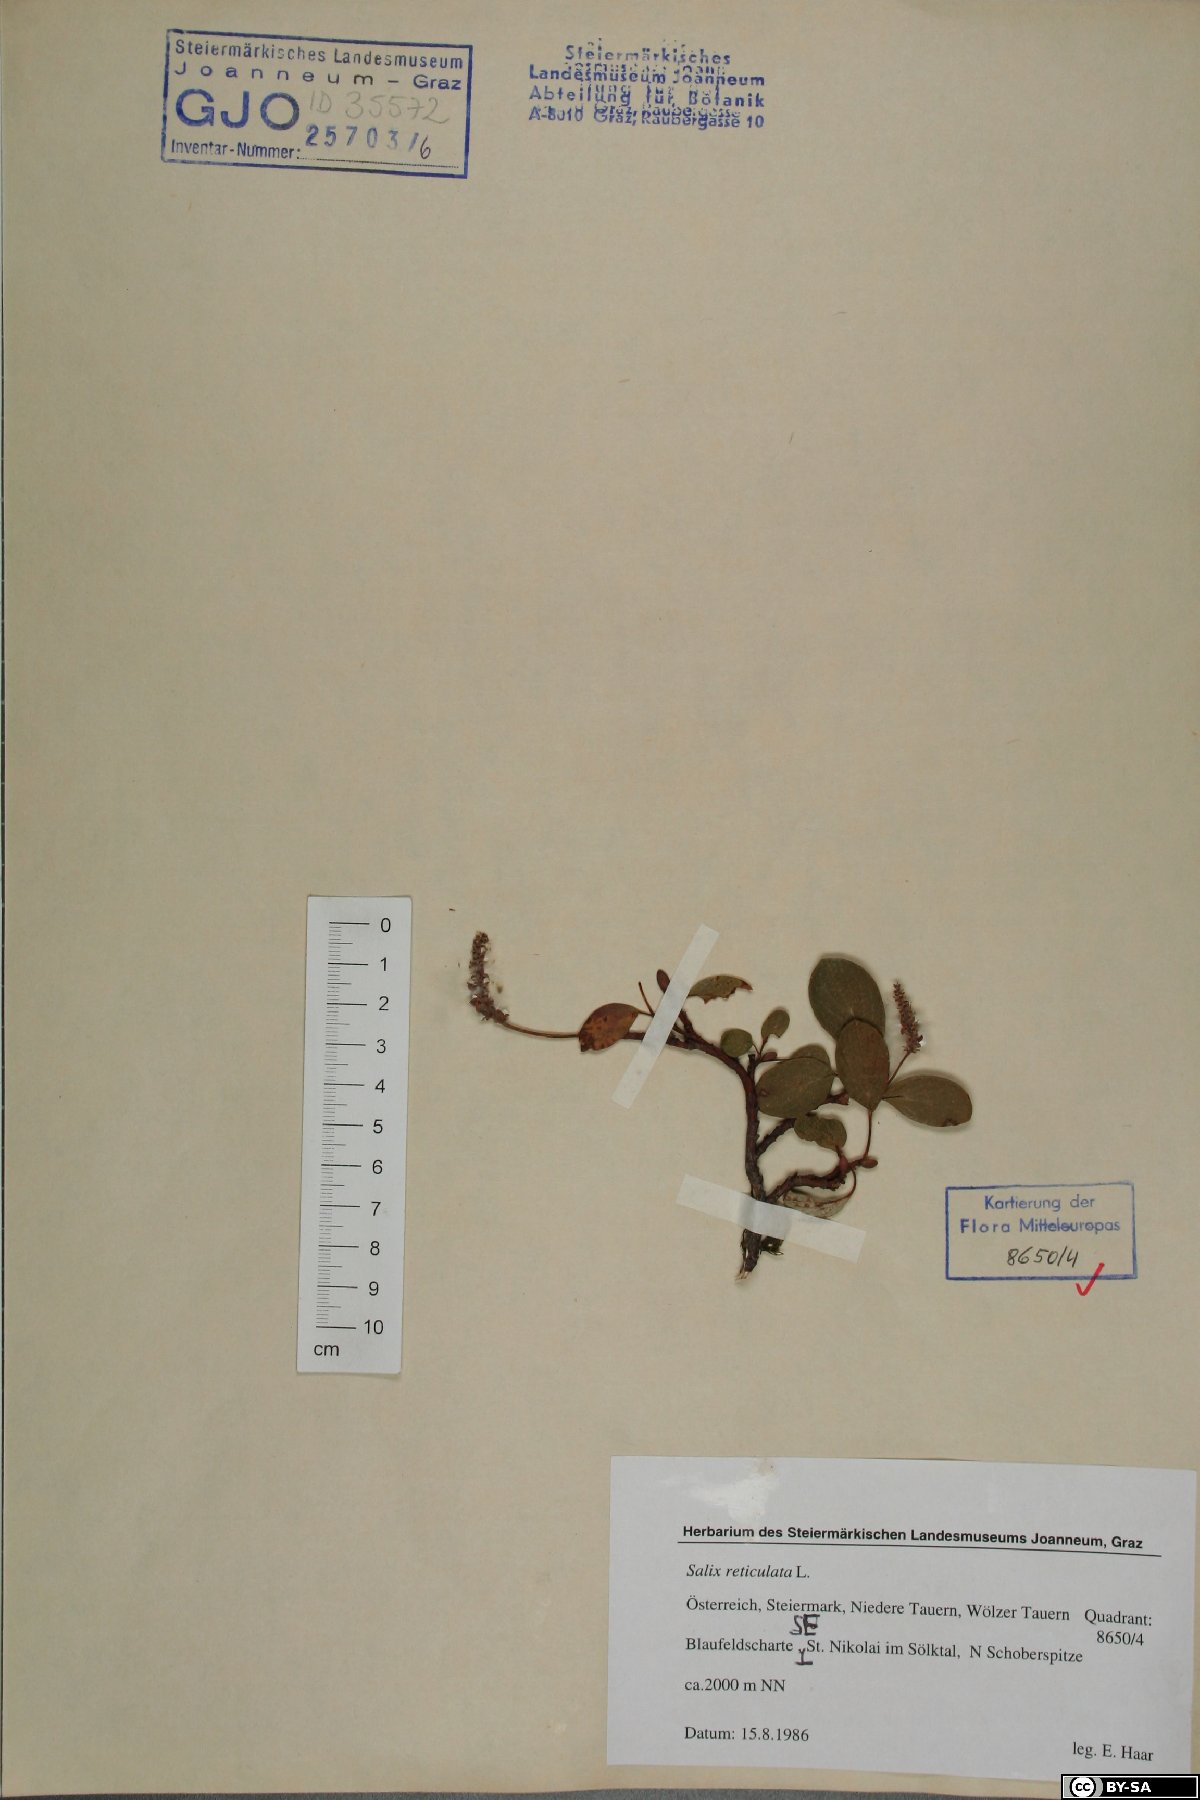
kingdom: Plantae
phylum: Tracheophyta
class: Magnoliopsida
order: Malpighiales
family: Salicaceae
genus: Salix
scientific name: Salix reticulata
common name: Net-leaved willow
